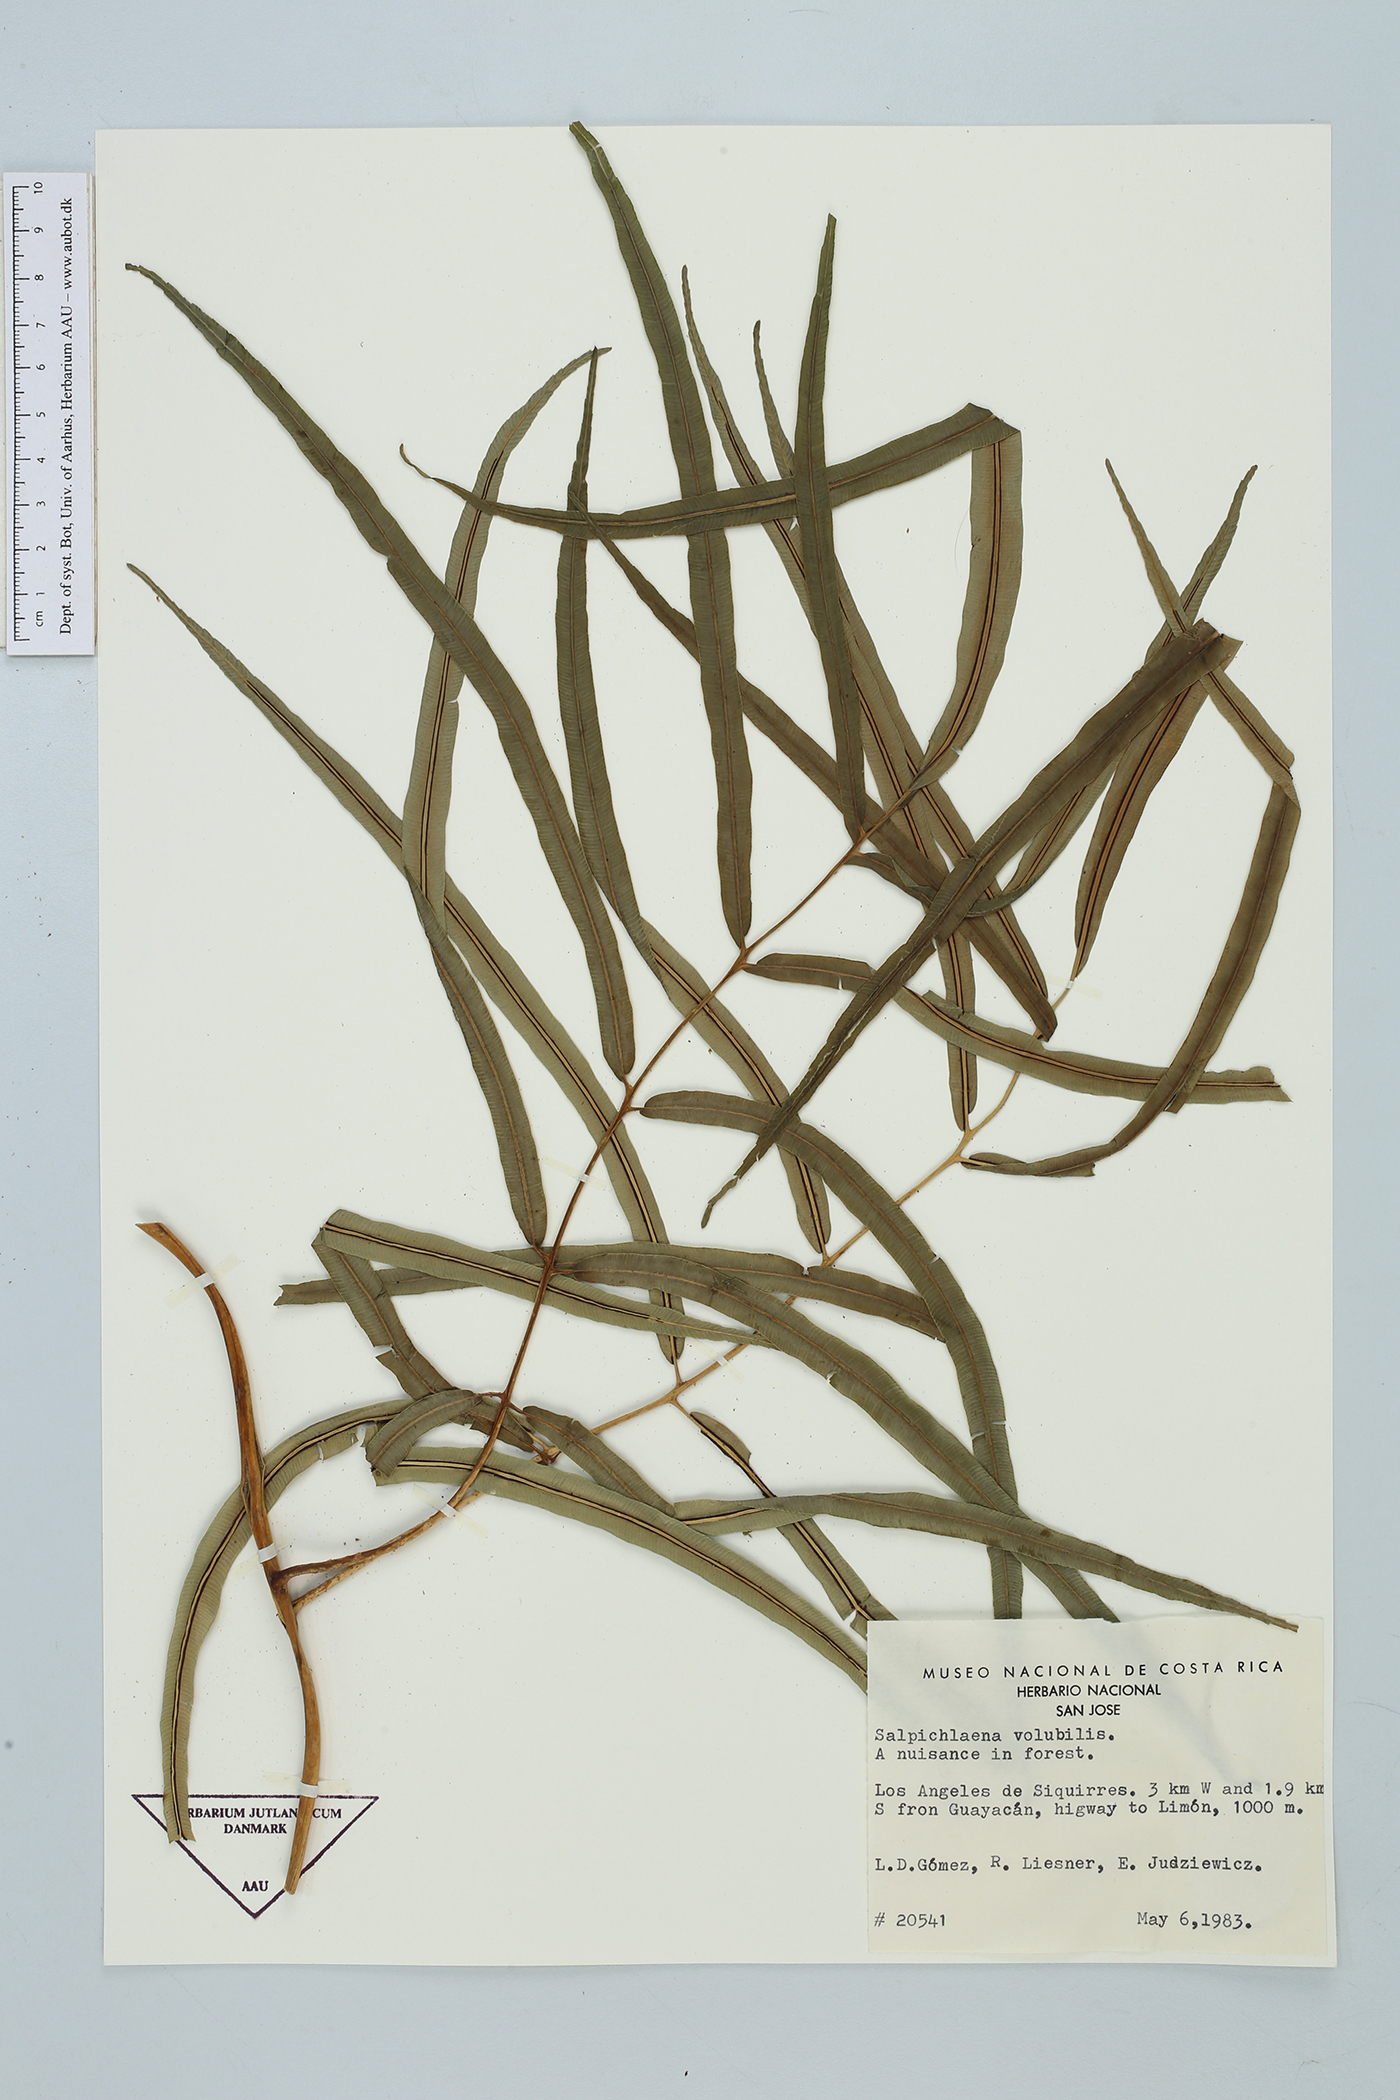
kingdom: Plantae
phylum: Tracheophyta
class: Polypodiopsida
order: Polypodiales
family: Blechnaceae
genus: Salpichlaena
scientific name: Salpichlaena papyrus
